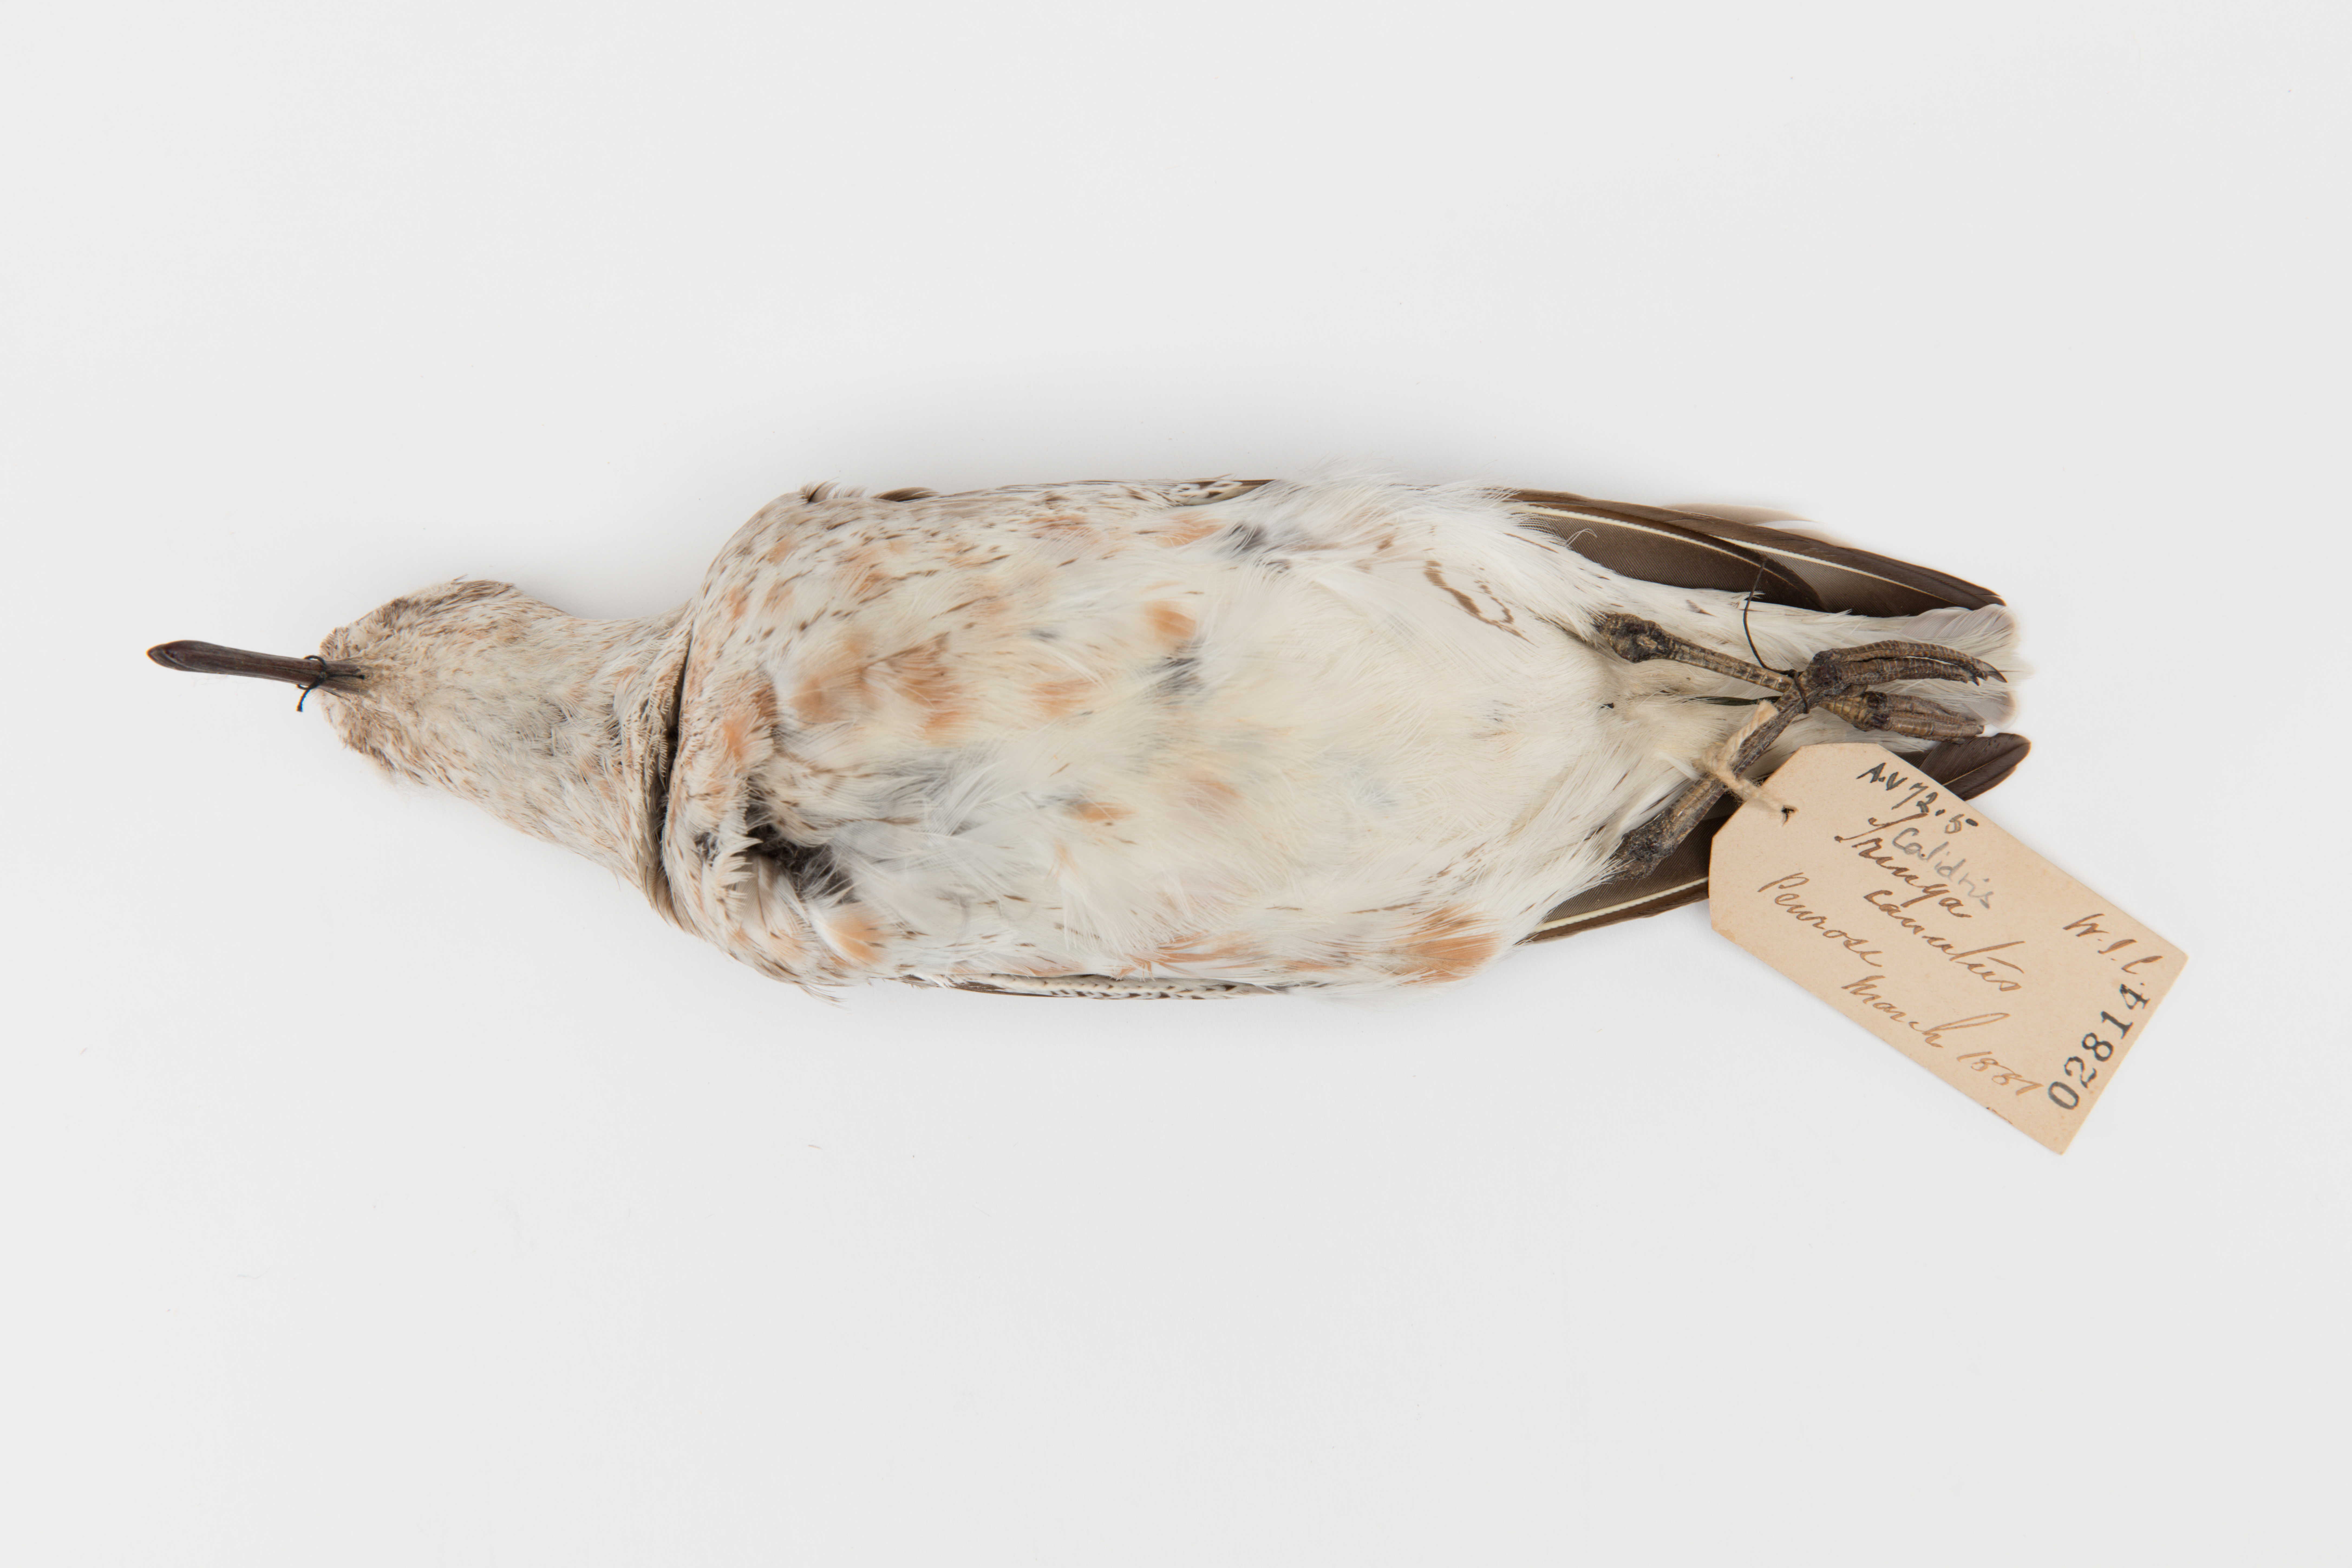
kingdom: Animalia
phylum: Chordata
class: Aves
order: Charadriiformes
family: Scolopacidae
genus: Calidris
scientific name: Calidris canutus
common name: Red knot
